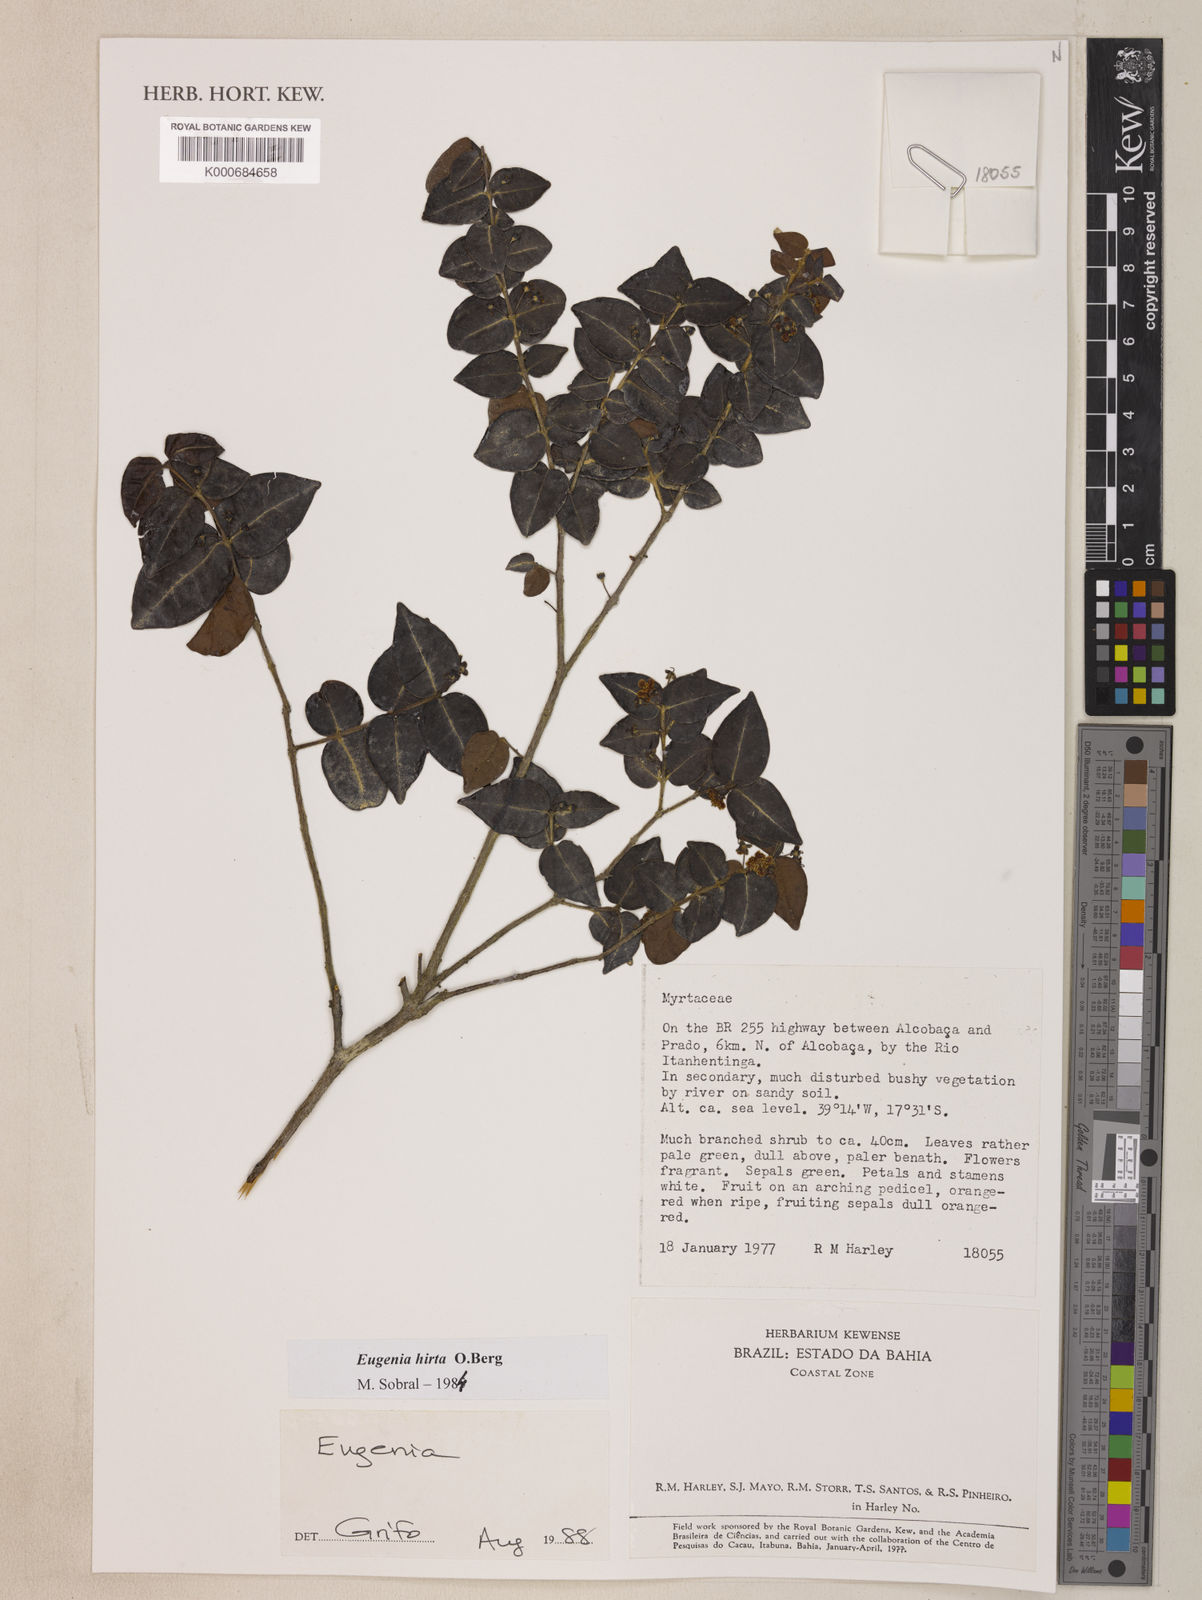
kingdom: Plantae
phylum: Tracheophyta
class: Magnoliopsida
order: Myrtales
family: Myrtaceae
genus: Eugenia
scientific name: Eugenia hirta
